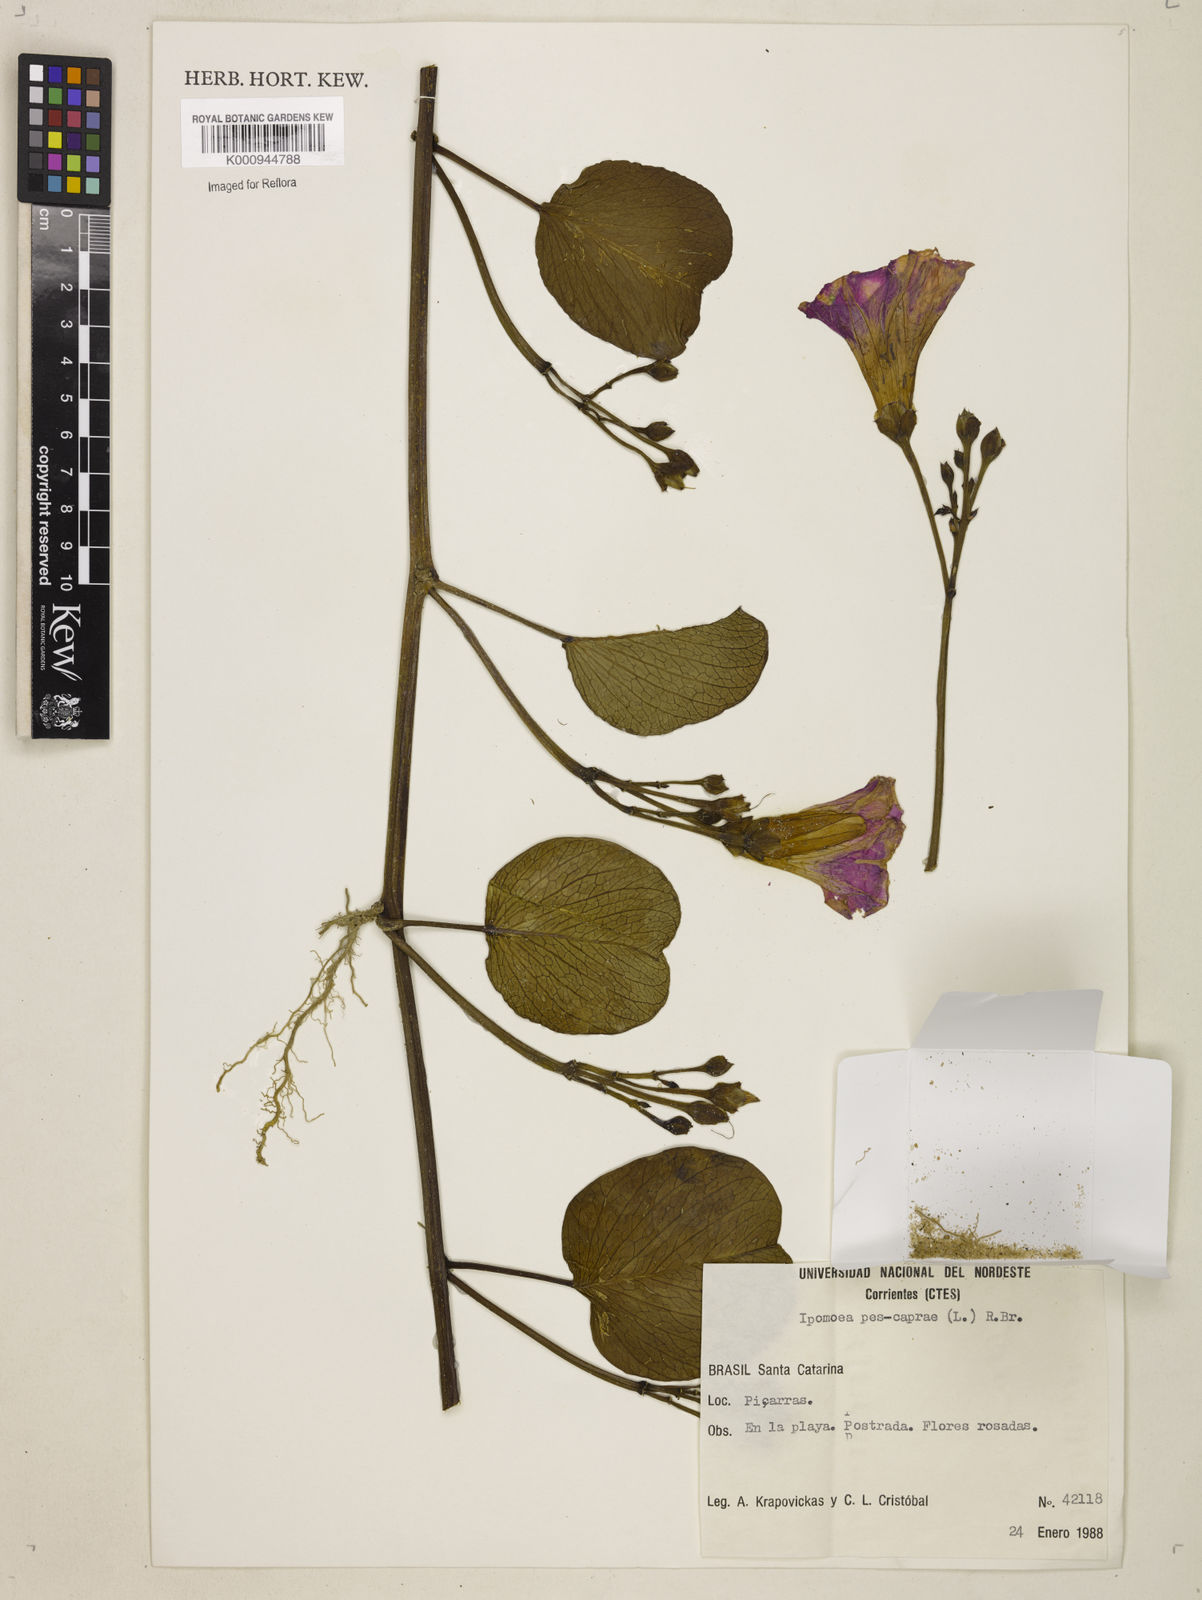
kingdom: Plantae
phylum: Tracheophyta
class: Magnoliopsida
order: Solanales
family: Convolvulaceae
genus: Ipomoea
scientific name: Ipomoea pes-caprae
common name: Beach morning glory
